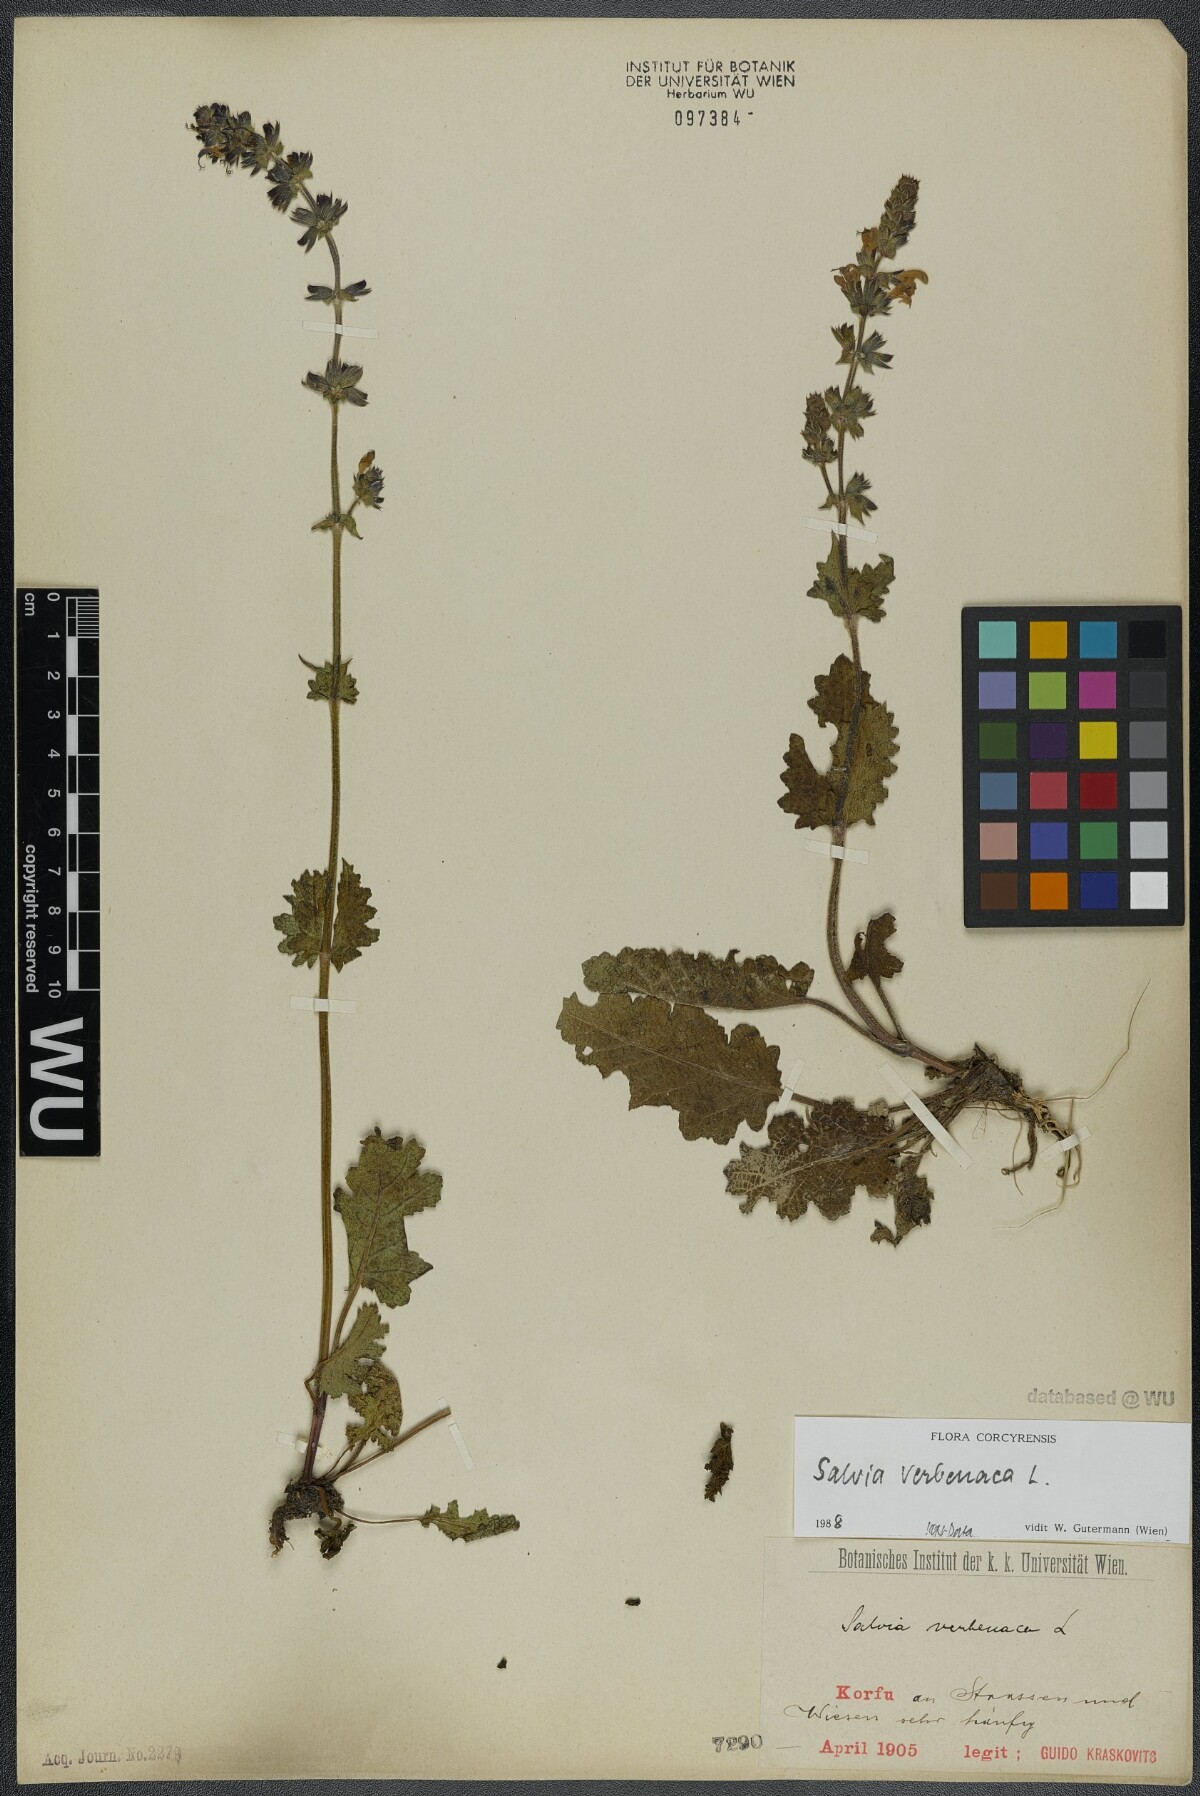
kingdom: Plantae
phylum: Tracheophyta
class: Magnoliopsida
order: Lamiales
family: Lamiaceae
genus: Salvia
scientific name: Salvia verbenaca
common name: Wild clary
